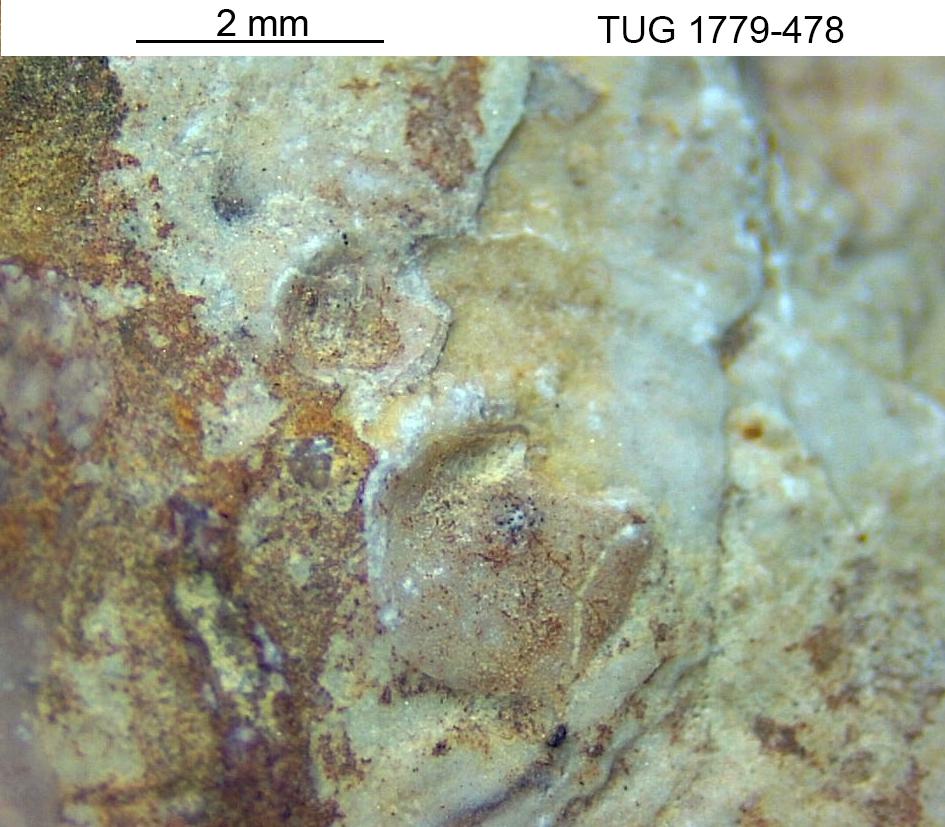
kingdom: Animalia
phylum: Brachiopoda
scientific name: Brachiopoda
